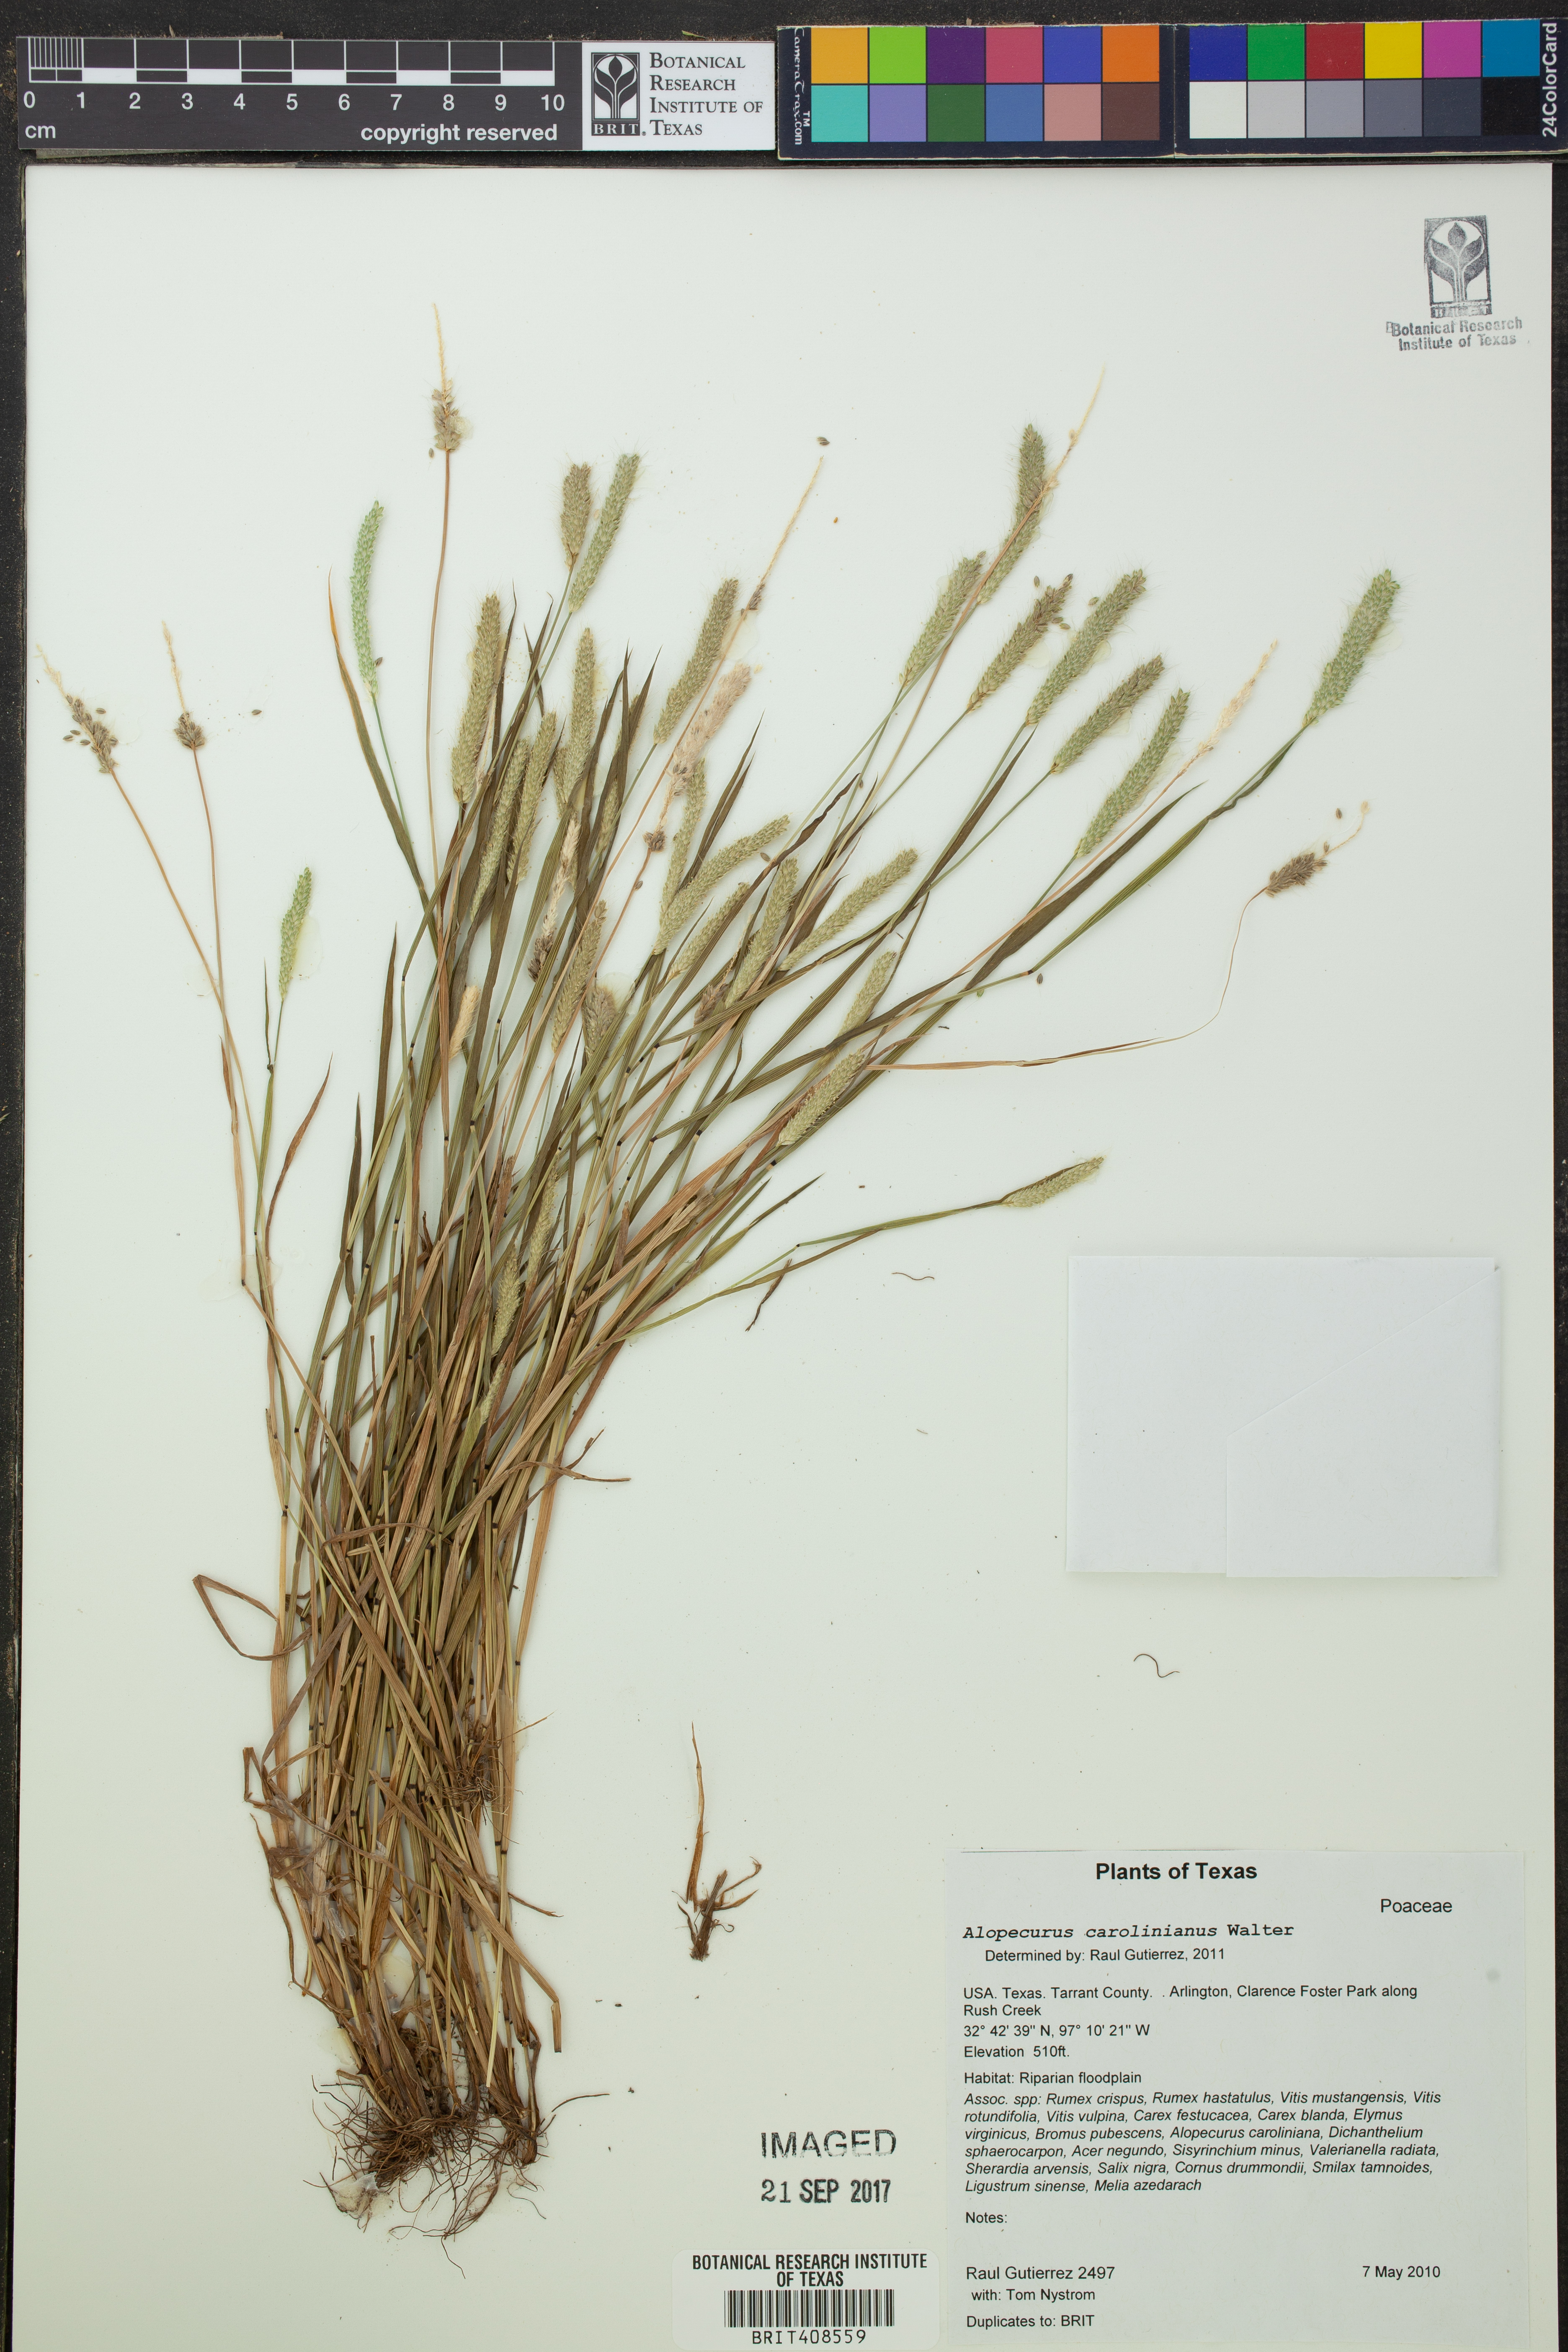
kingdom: Plantae
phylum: Tracheophyta
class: Liliopsida
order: Poales
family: Poaceae
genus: Alopecurus
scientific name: Alopecurus carolinianus
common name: Tufted foxtail
